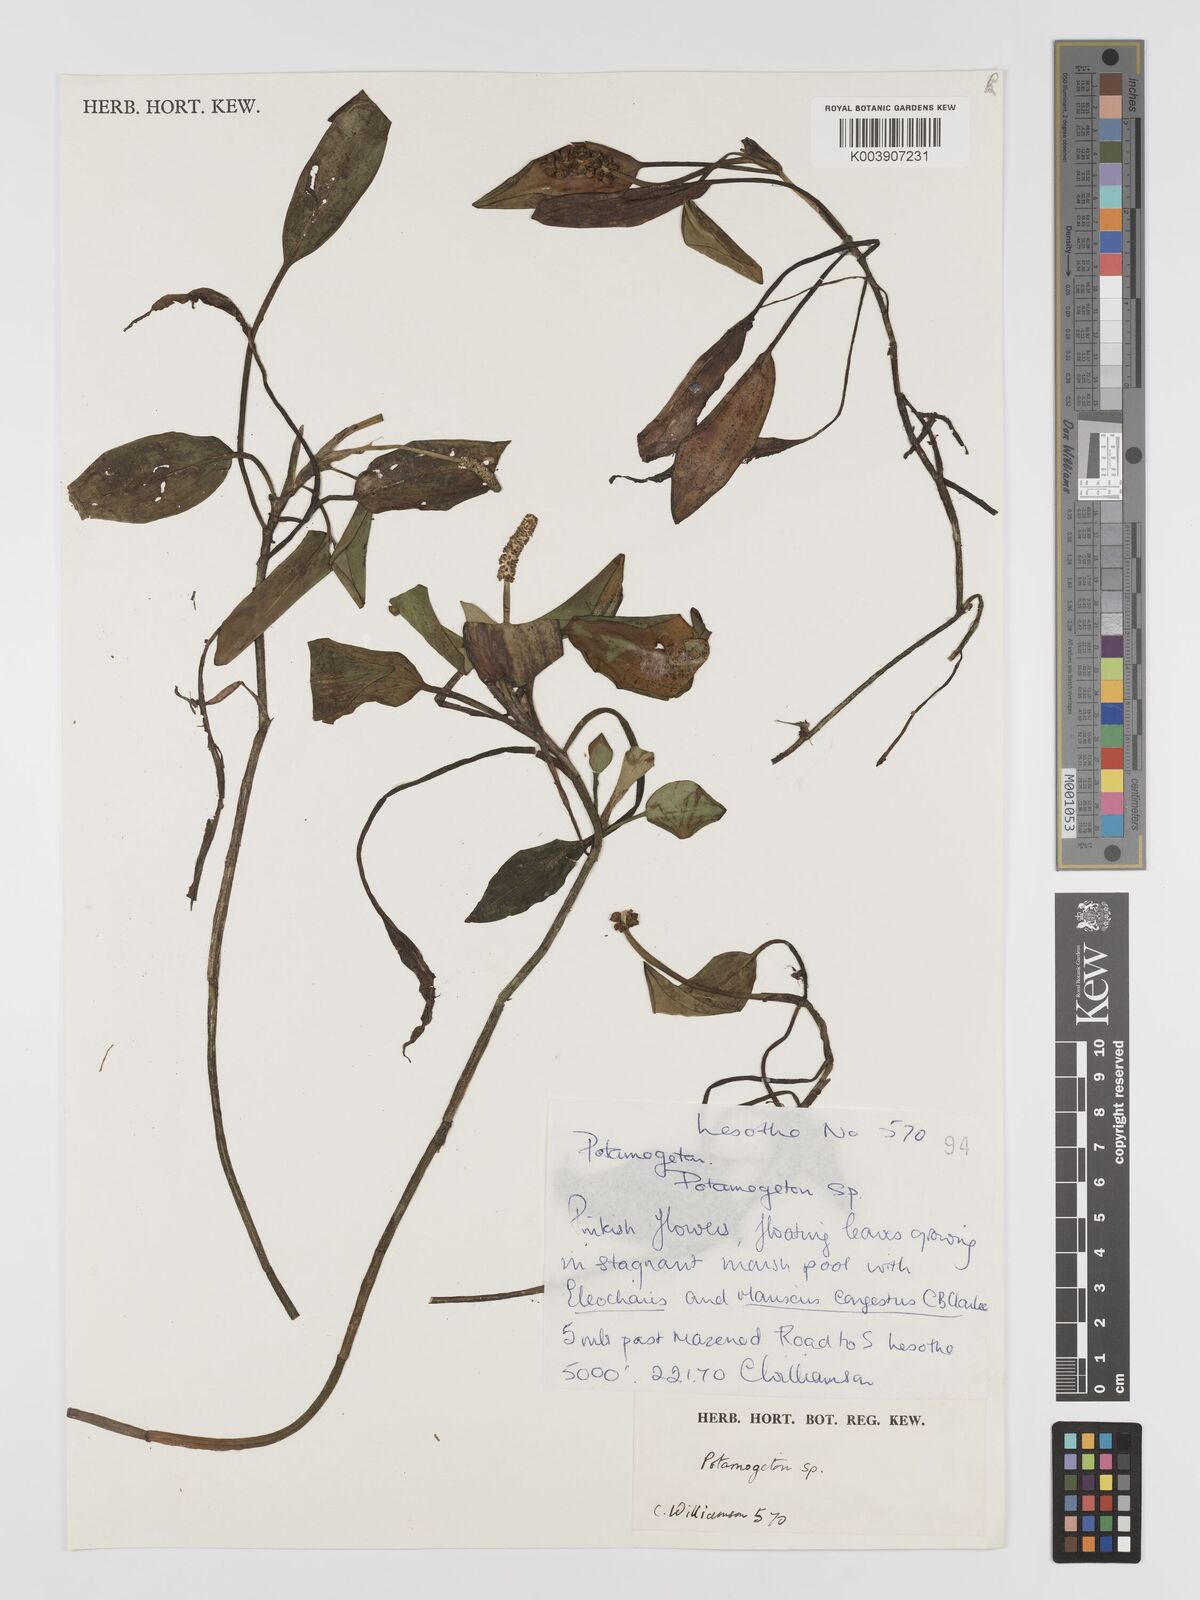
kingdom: Plantae
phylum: Tracheophyta
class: Liliopsida
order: Alismatales
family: Potamogetonaceae
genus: Potamogeton
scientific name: Potamogeton nodosus
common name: Loddon pondweed
